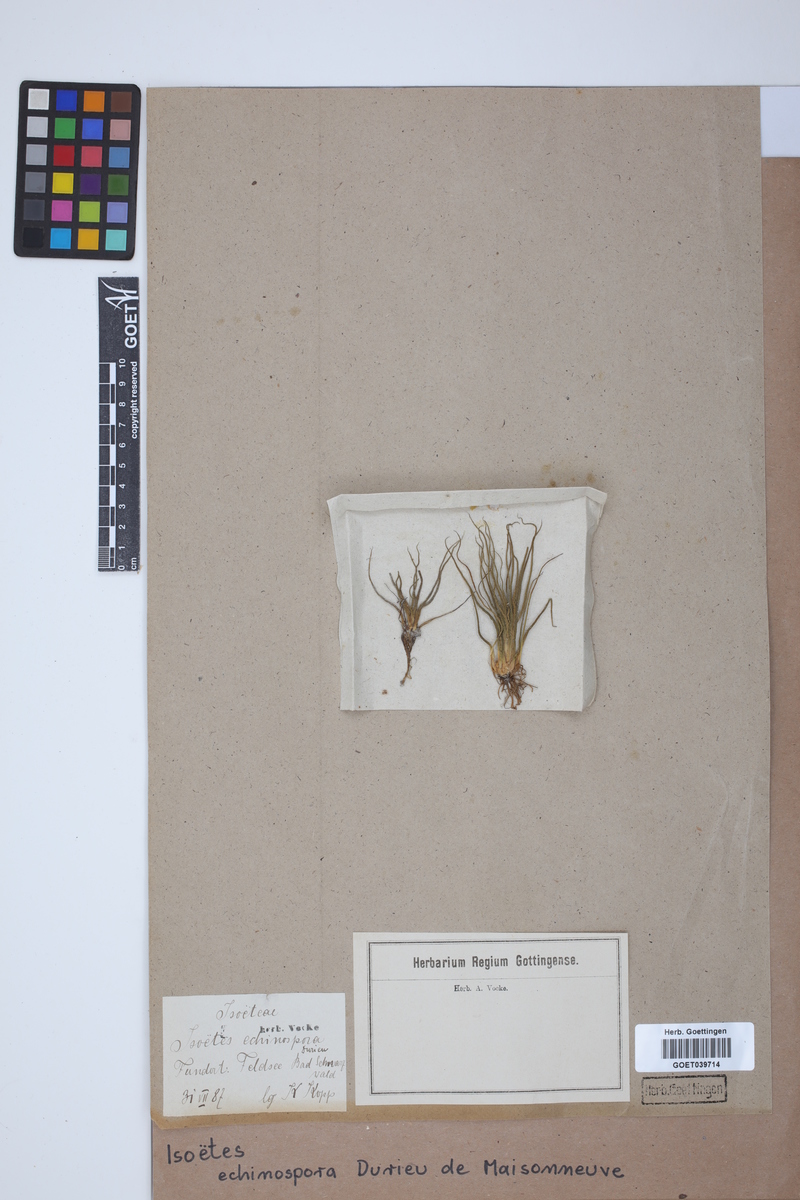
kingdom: Plantae
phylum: Tracheophyta
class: Lycopodiopsida
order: Isoetales
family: Isoetaceae
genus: Isoetes
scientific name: Isoetes echinospora
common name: Spring quillwort
